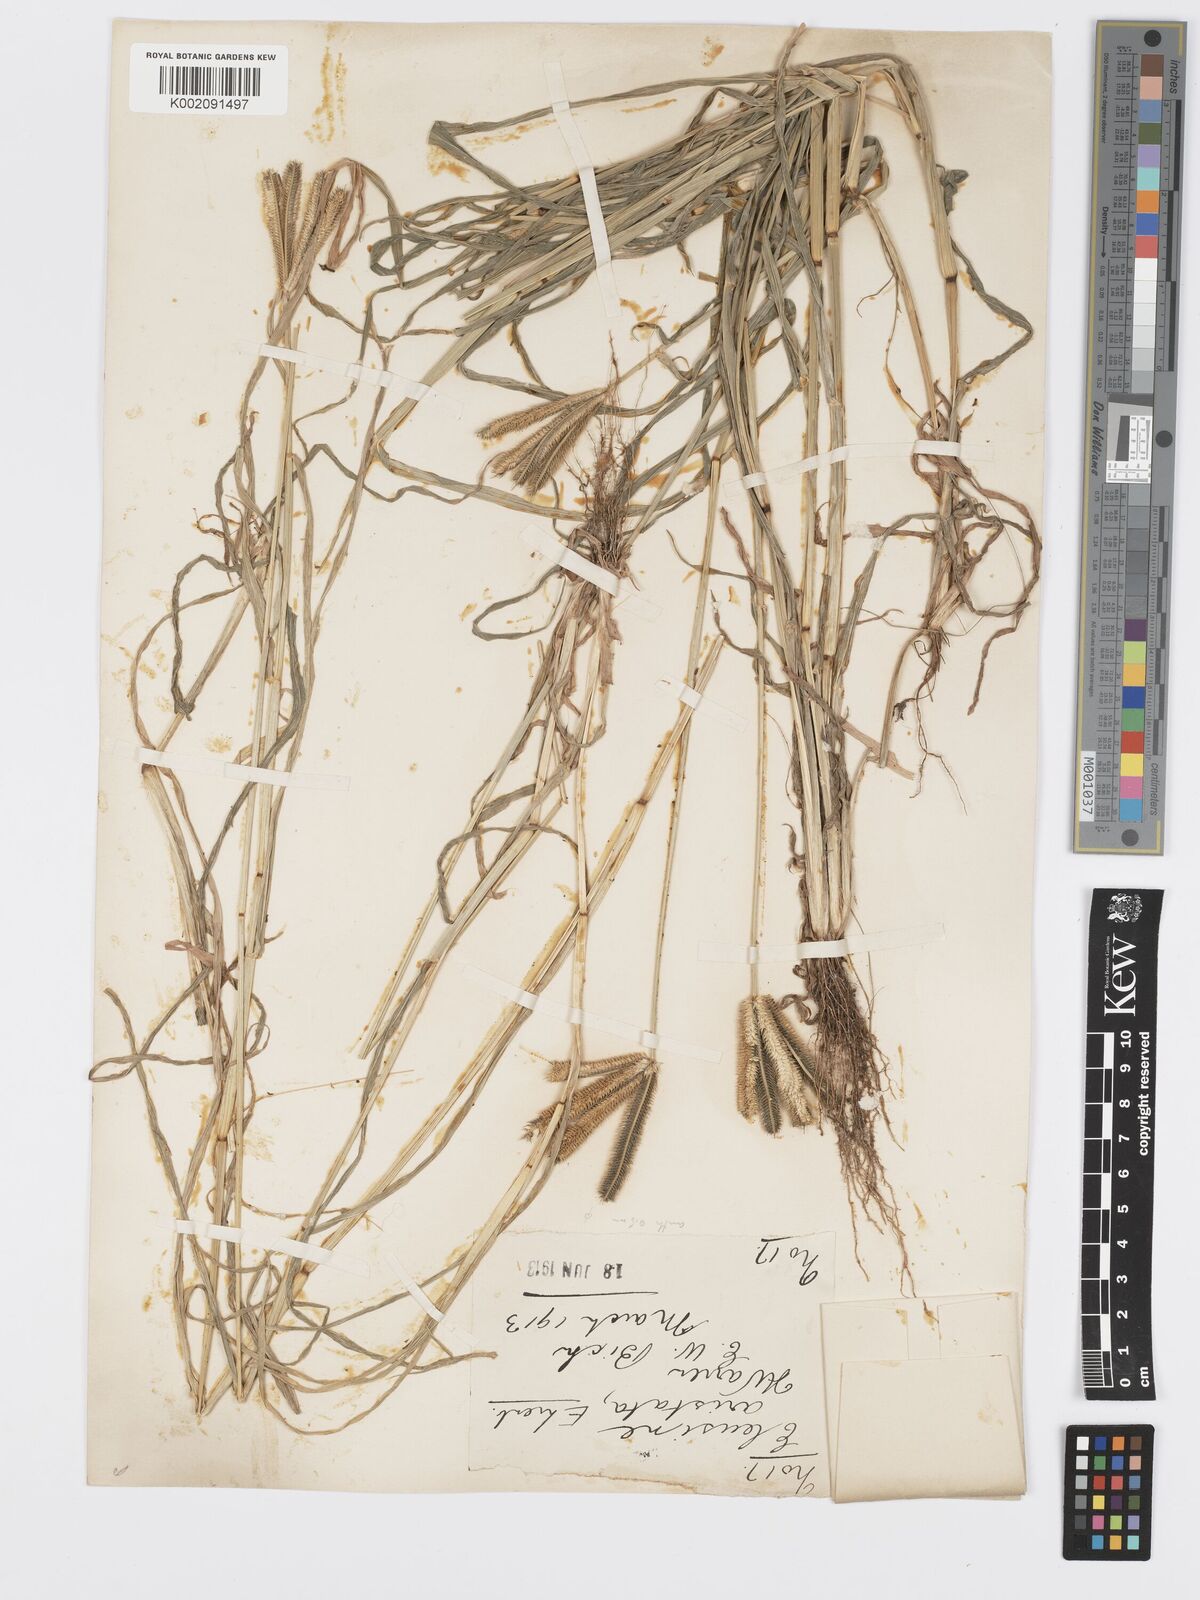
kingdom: Plantae
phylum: Tracheophyta
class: Liliopsida
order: Poales
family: Poaceae
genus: Dactyloctenium
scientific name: Dactyloctenium aegyptium
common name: Egyptian grass
